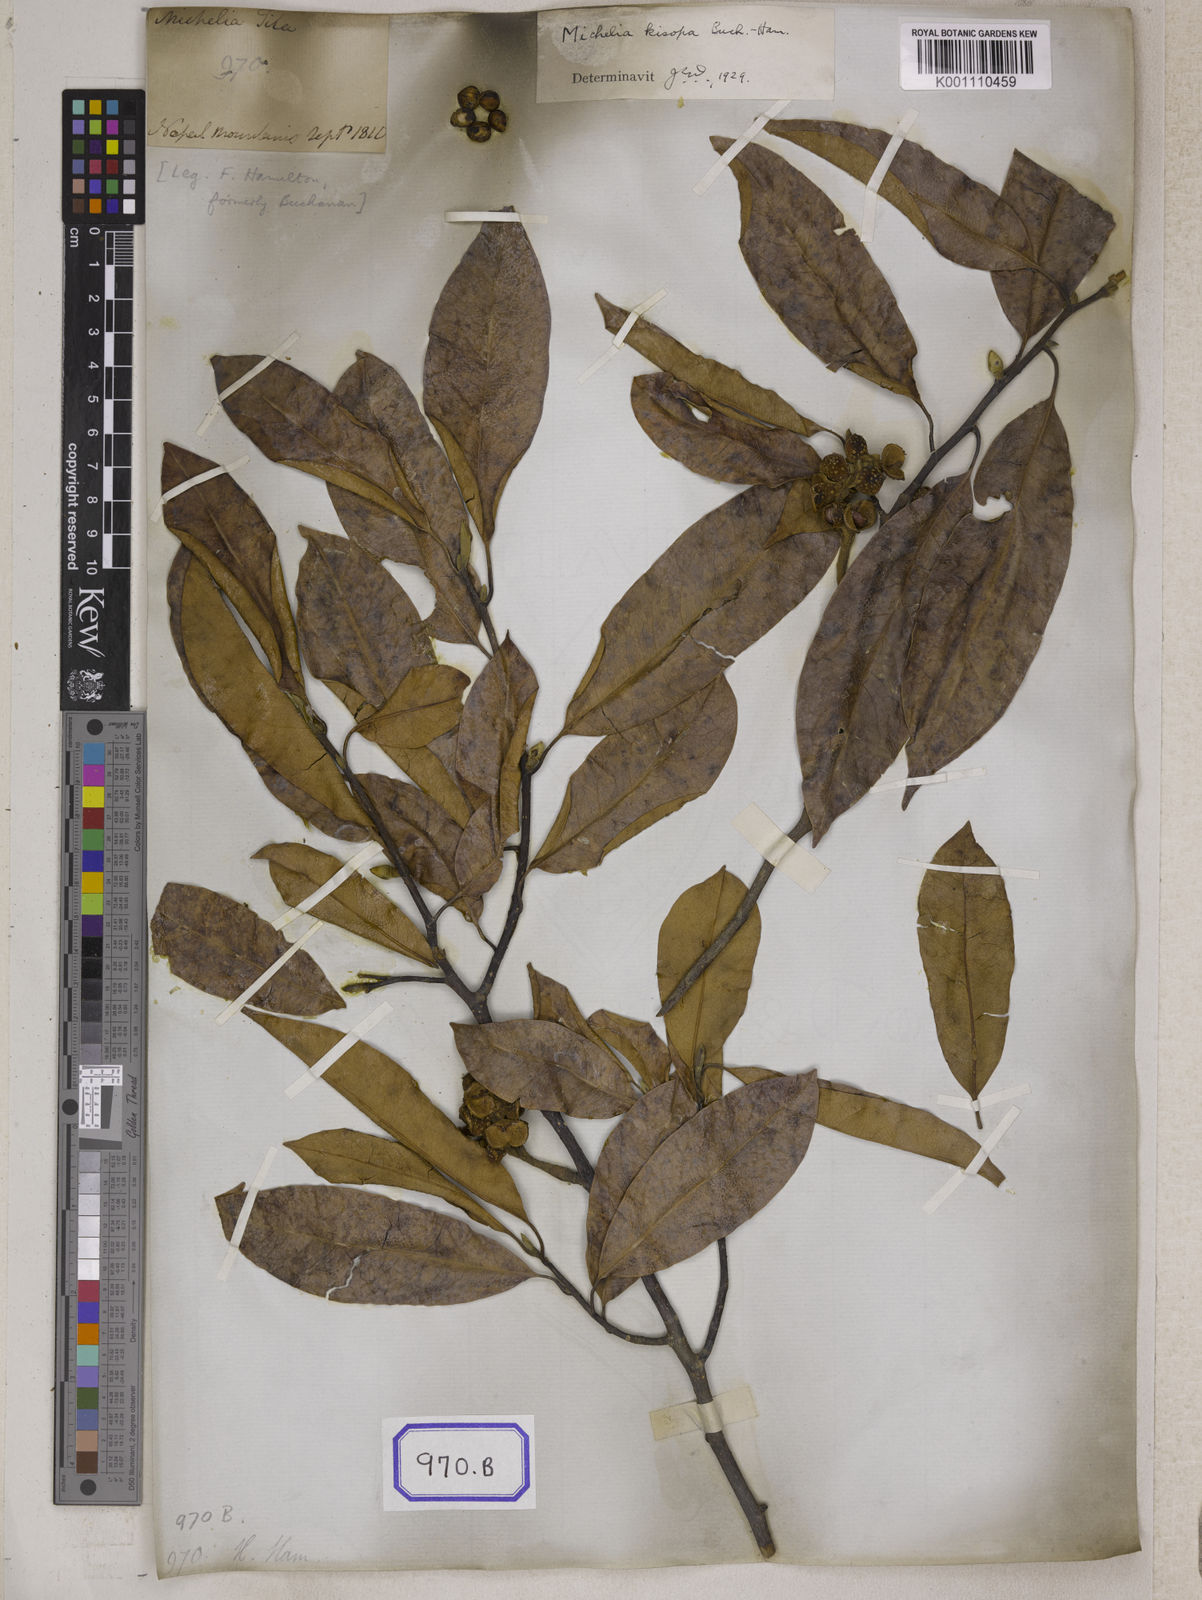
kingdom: Plantae
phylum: Tracheophyta
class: Magnoliopsida
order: Magnoliales
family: Magnoliaceae
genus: Michelia
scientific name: Michelia
